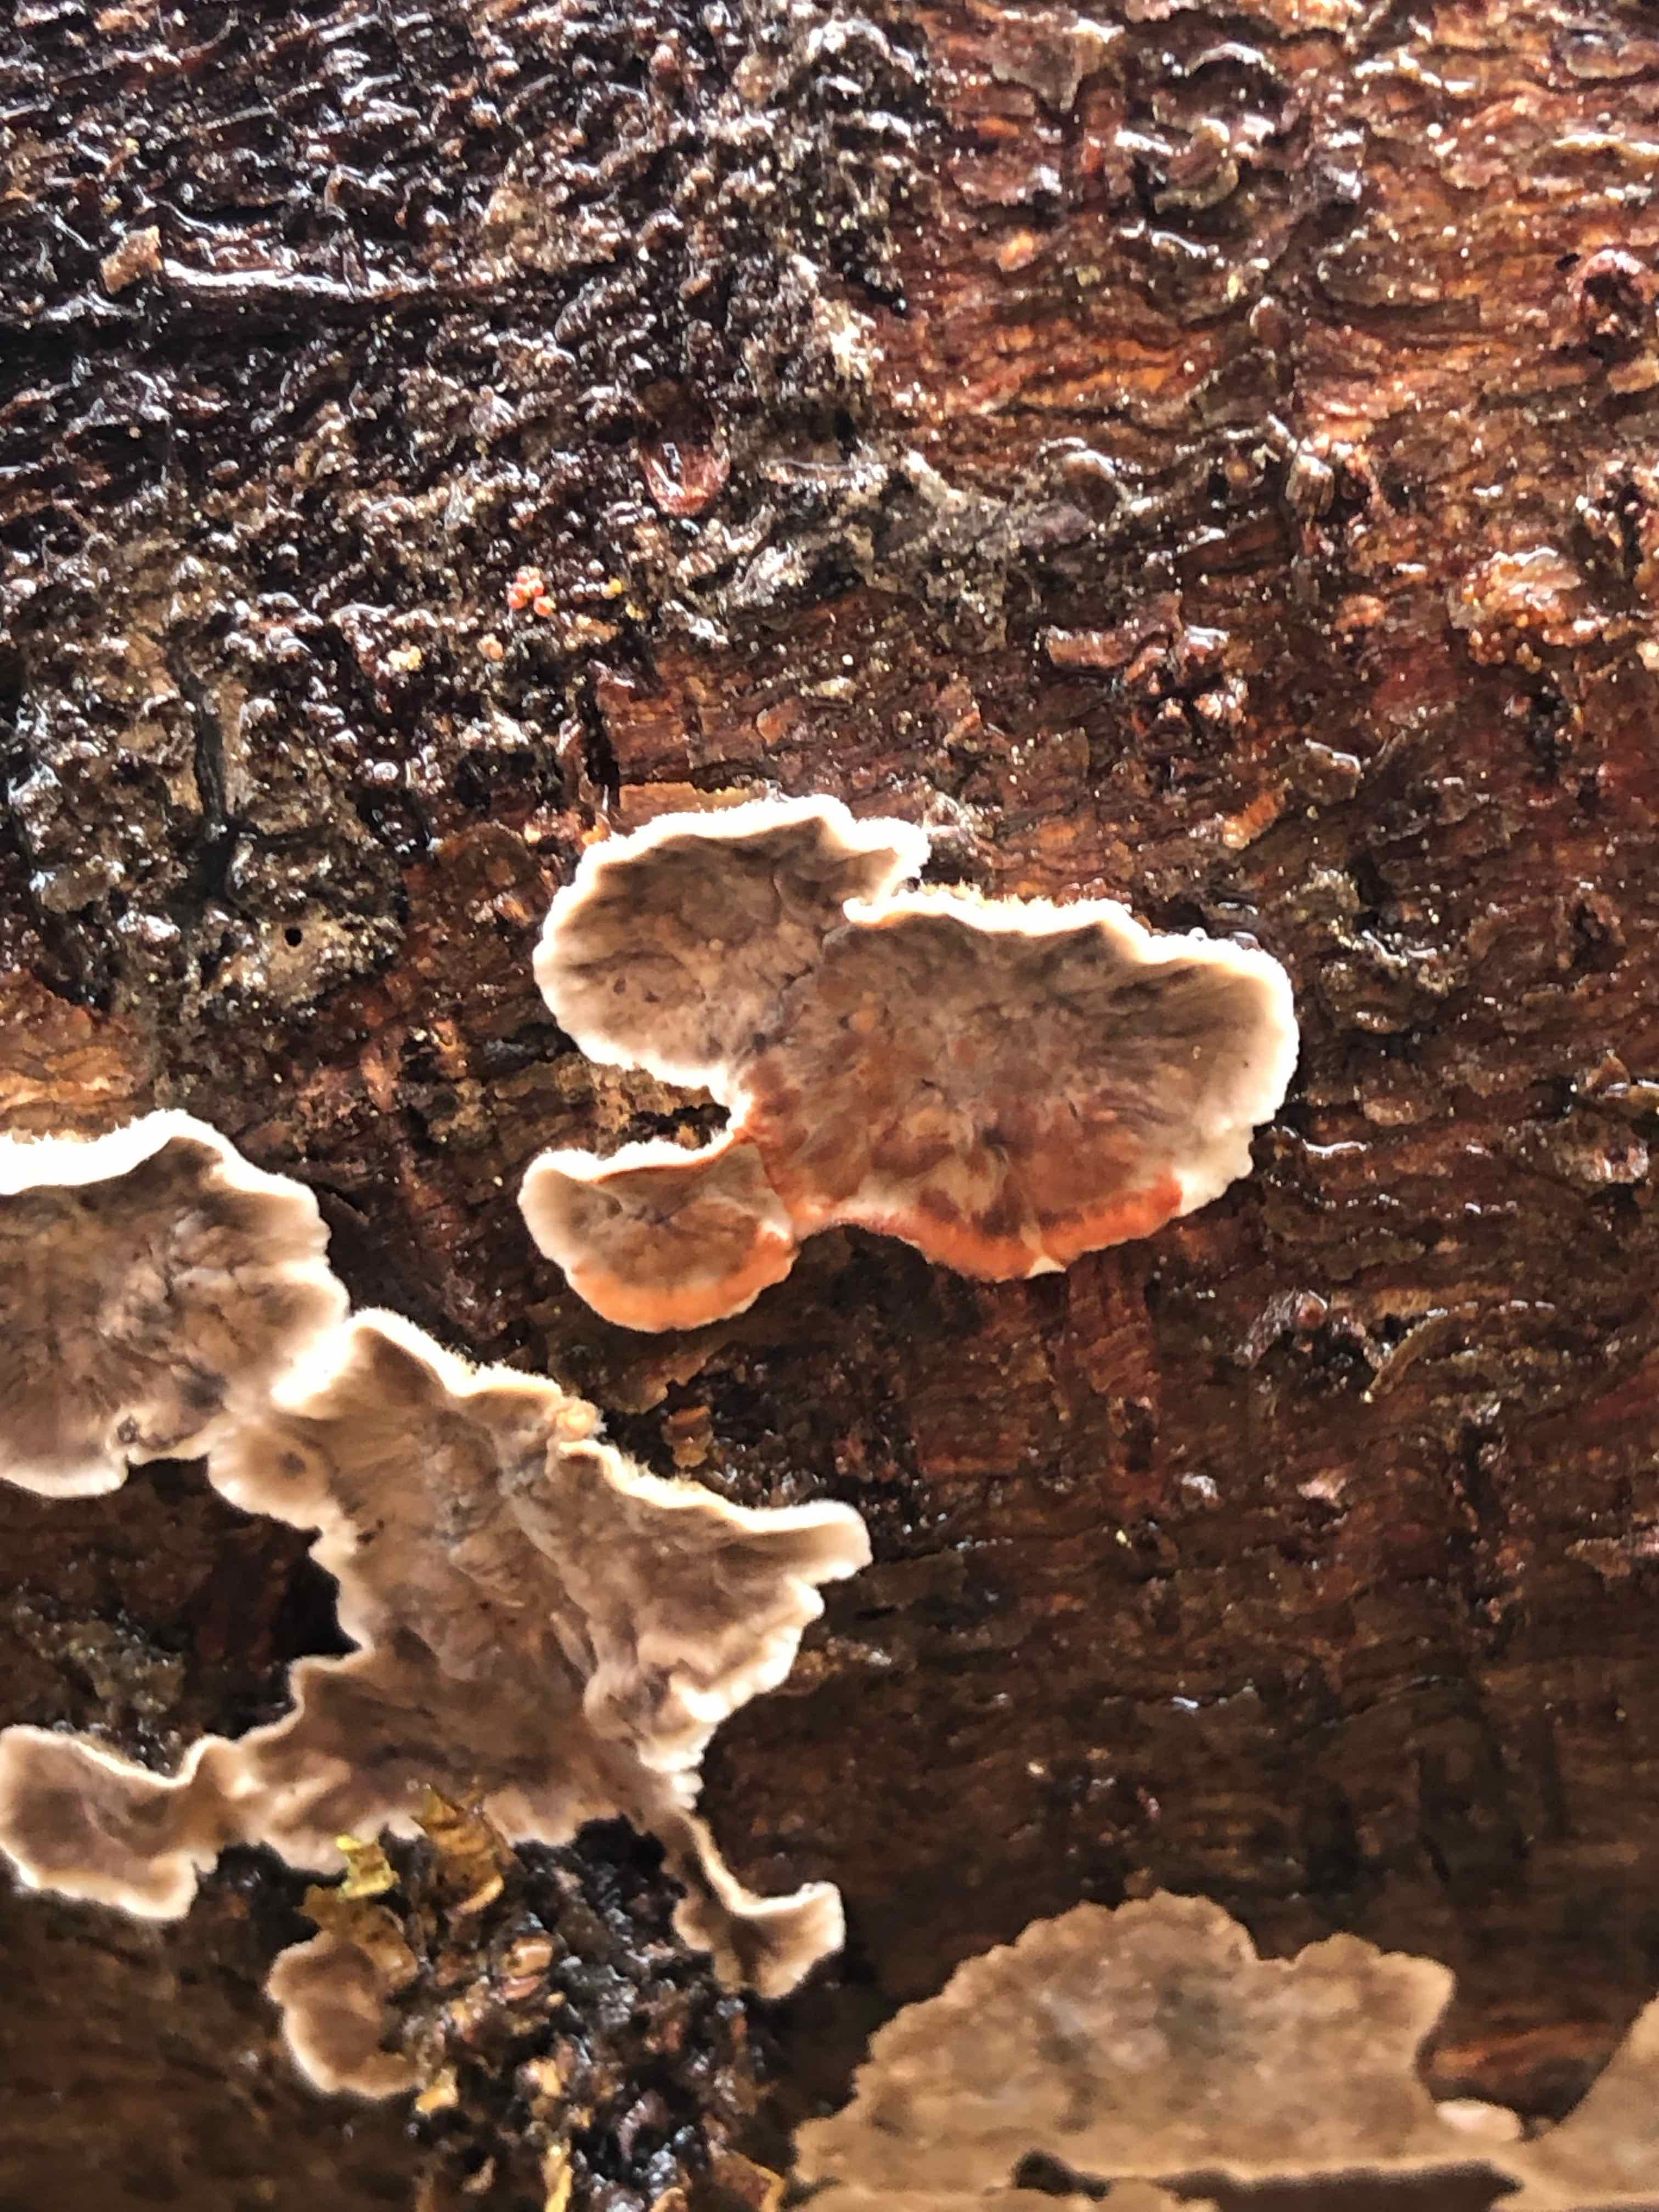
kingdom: Fungi
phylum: Basidiomycota
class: Agaricomycetes
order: Russulales
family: Stereaceae
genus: Stereum
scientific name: Stereum sanguinolentum
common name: blødende lædersvamp
